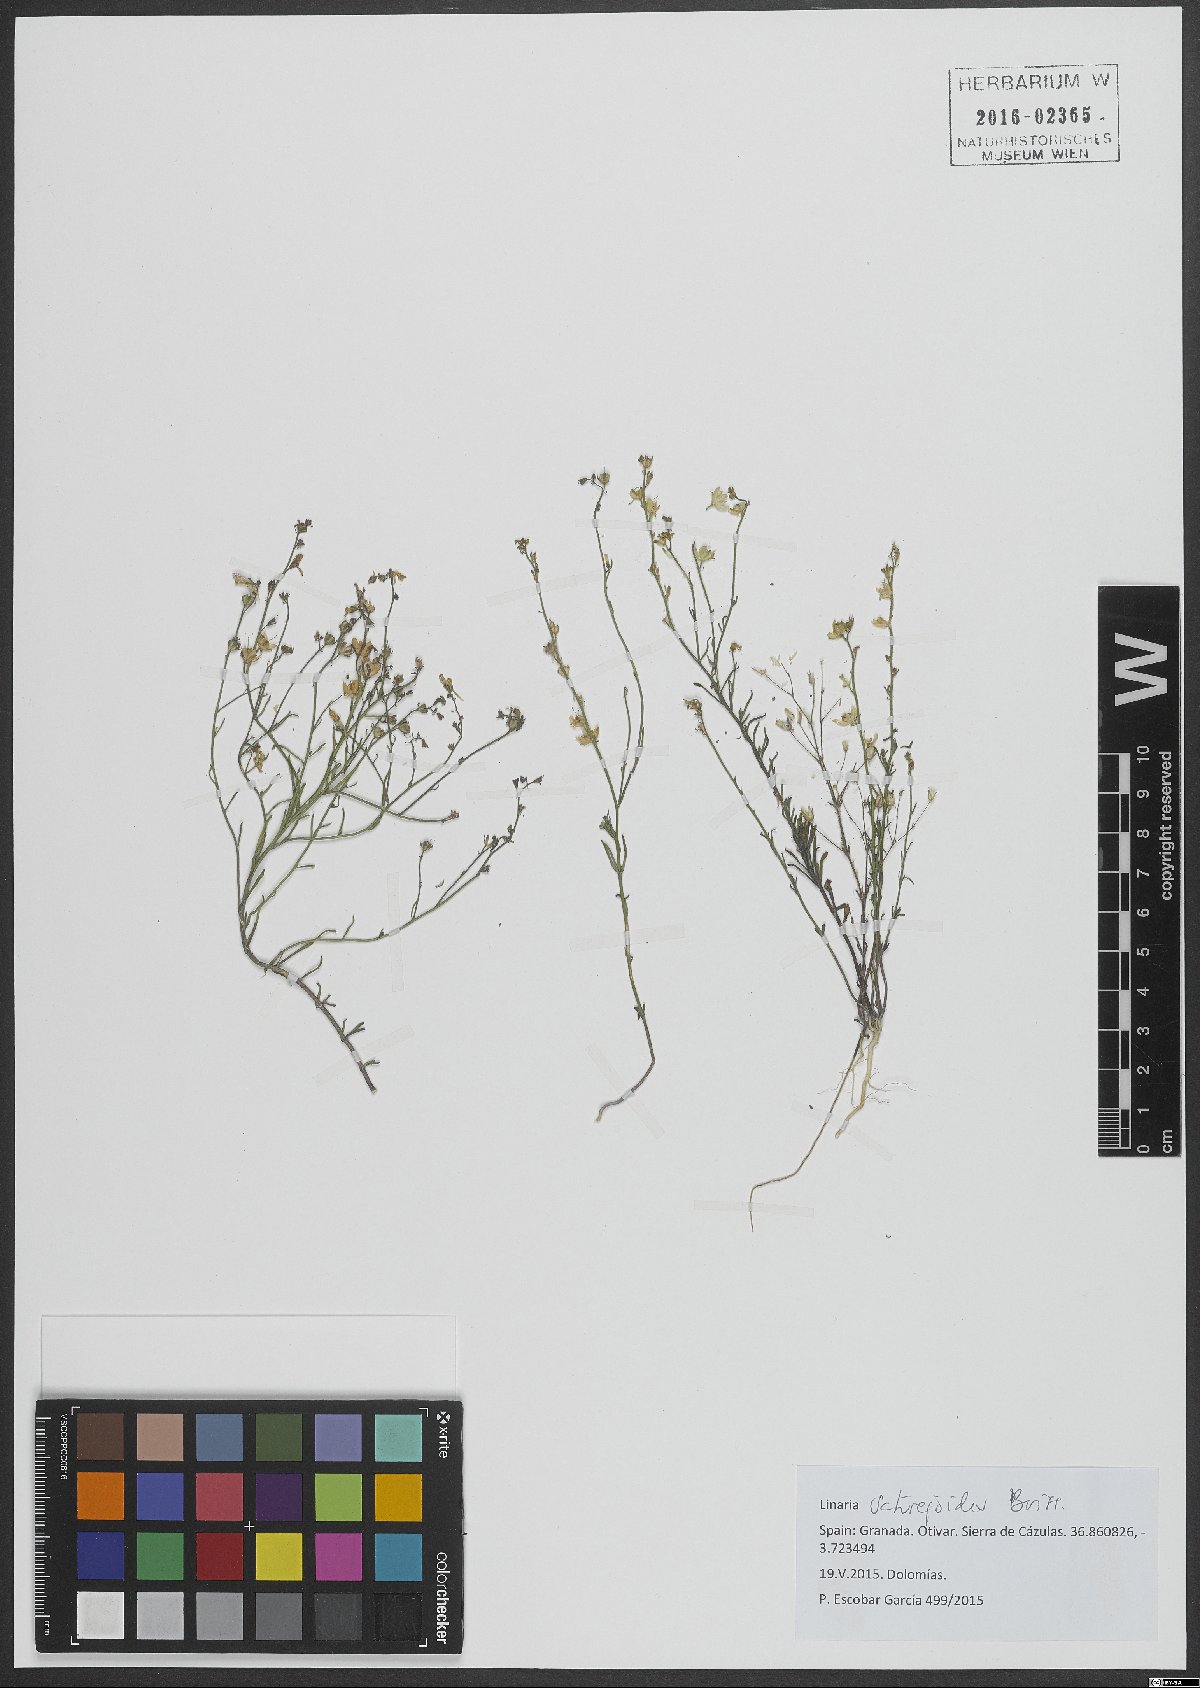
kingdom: Plantae
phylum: Tracheophyta
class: Magnoliopsida
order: Lamiales
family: Plantaginaceae
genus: Linaria
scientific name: Linaria saturejoides
